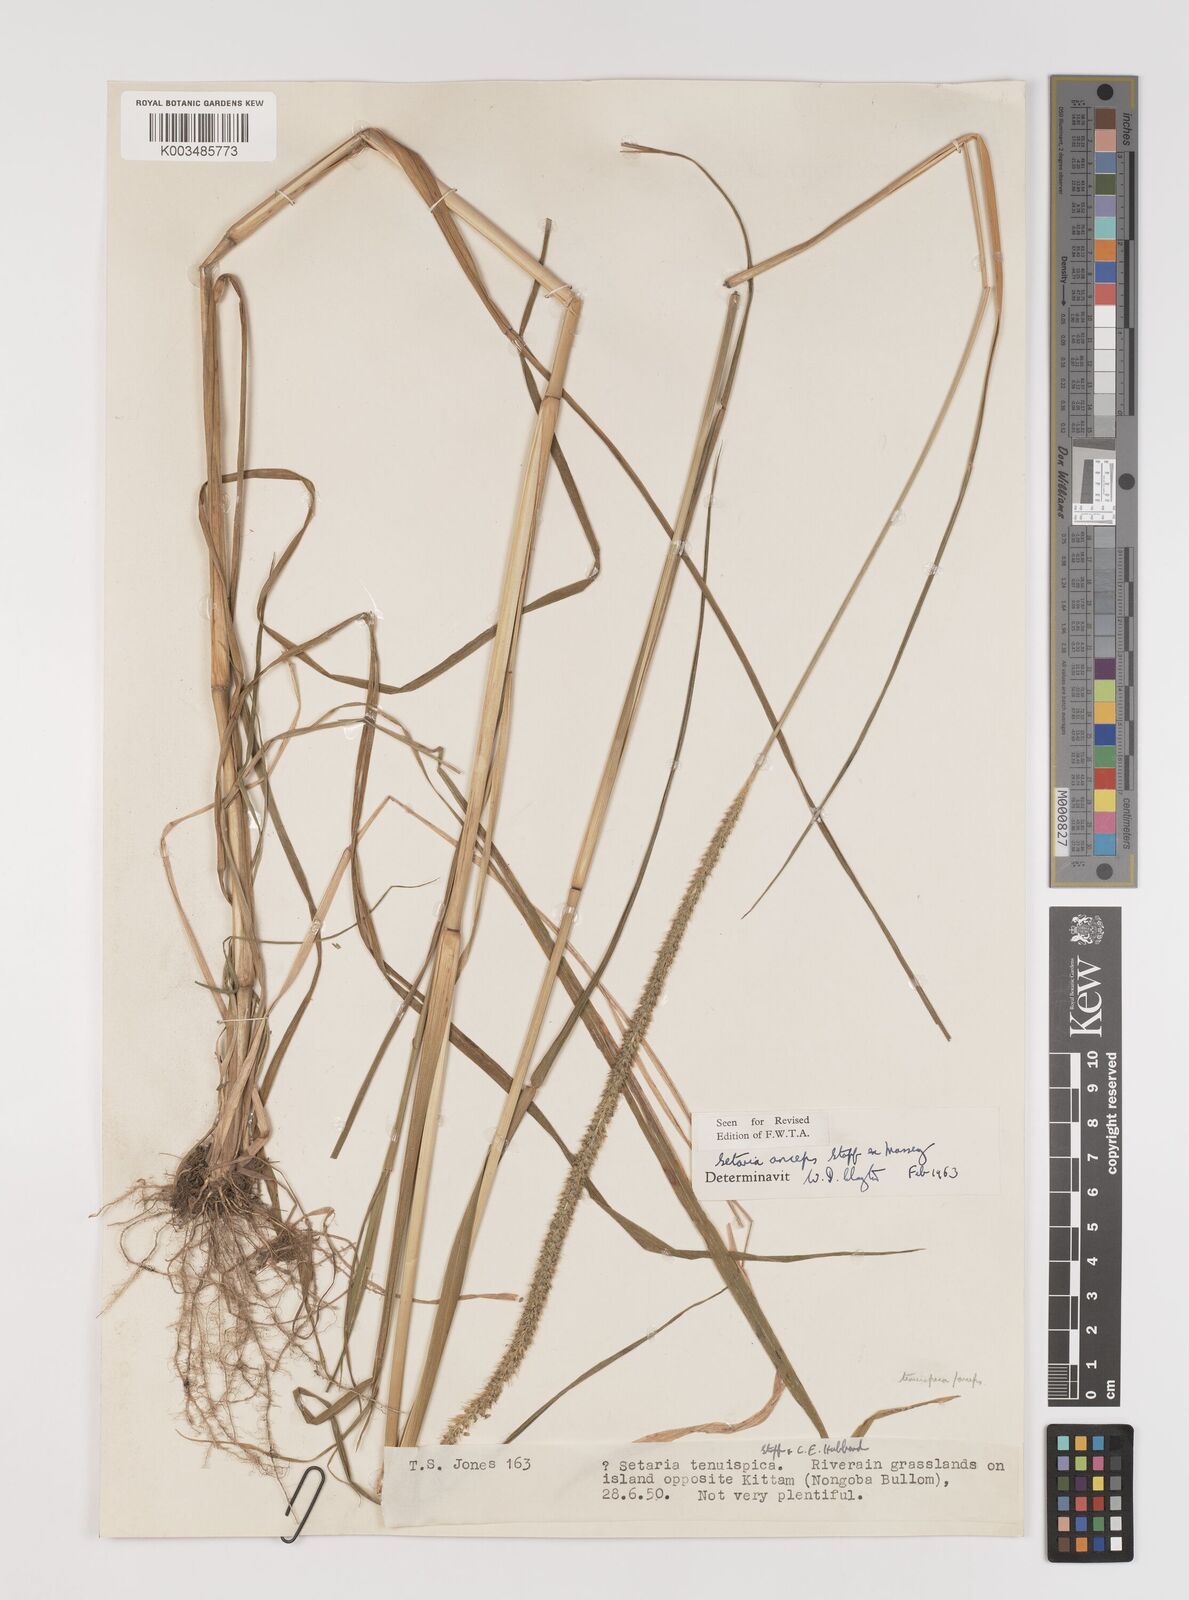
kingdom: Plantae
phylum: Tracheophyta
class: Liliopsida
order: Poales
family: Poaceae
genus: Setaria
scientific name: Setaria sphacelata
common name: African bristlegrass
